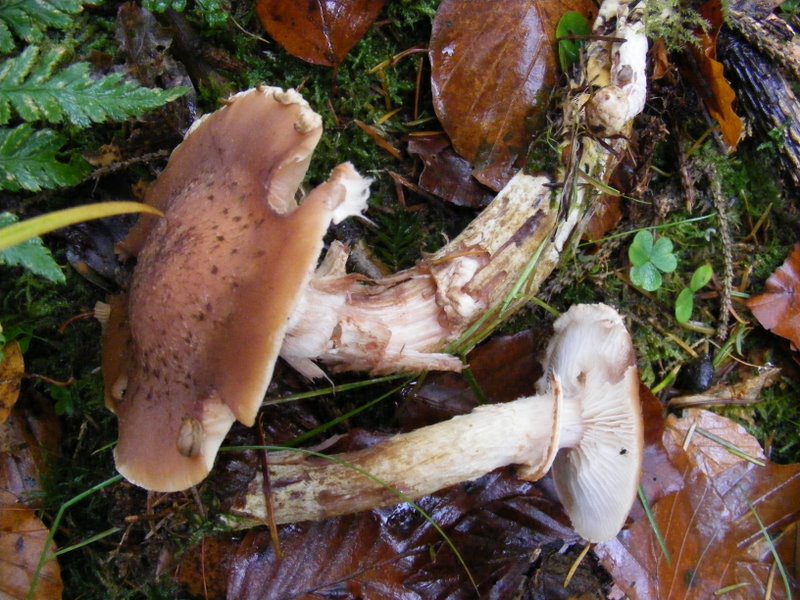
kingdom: Fungi
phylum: Basidiomycota
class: Agaricomycetes
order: Agaricales
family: Physalacriaceae
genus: Armillaria
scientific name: Armillaria ostoyae
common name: mørk honningsvamp
